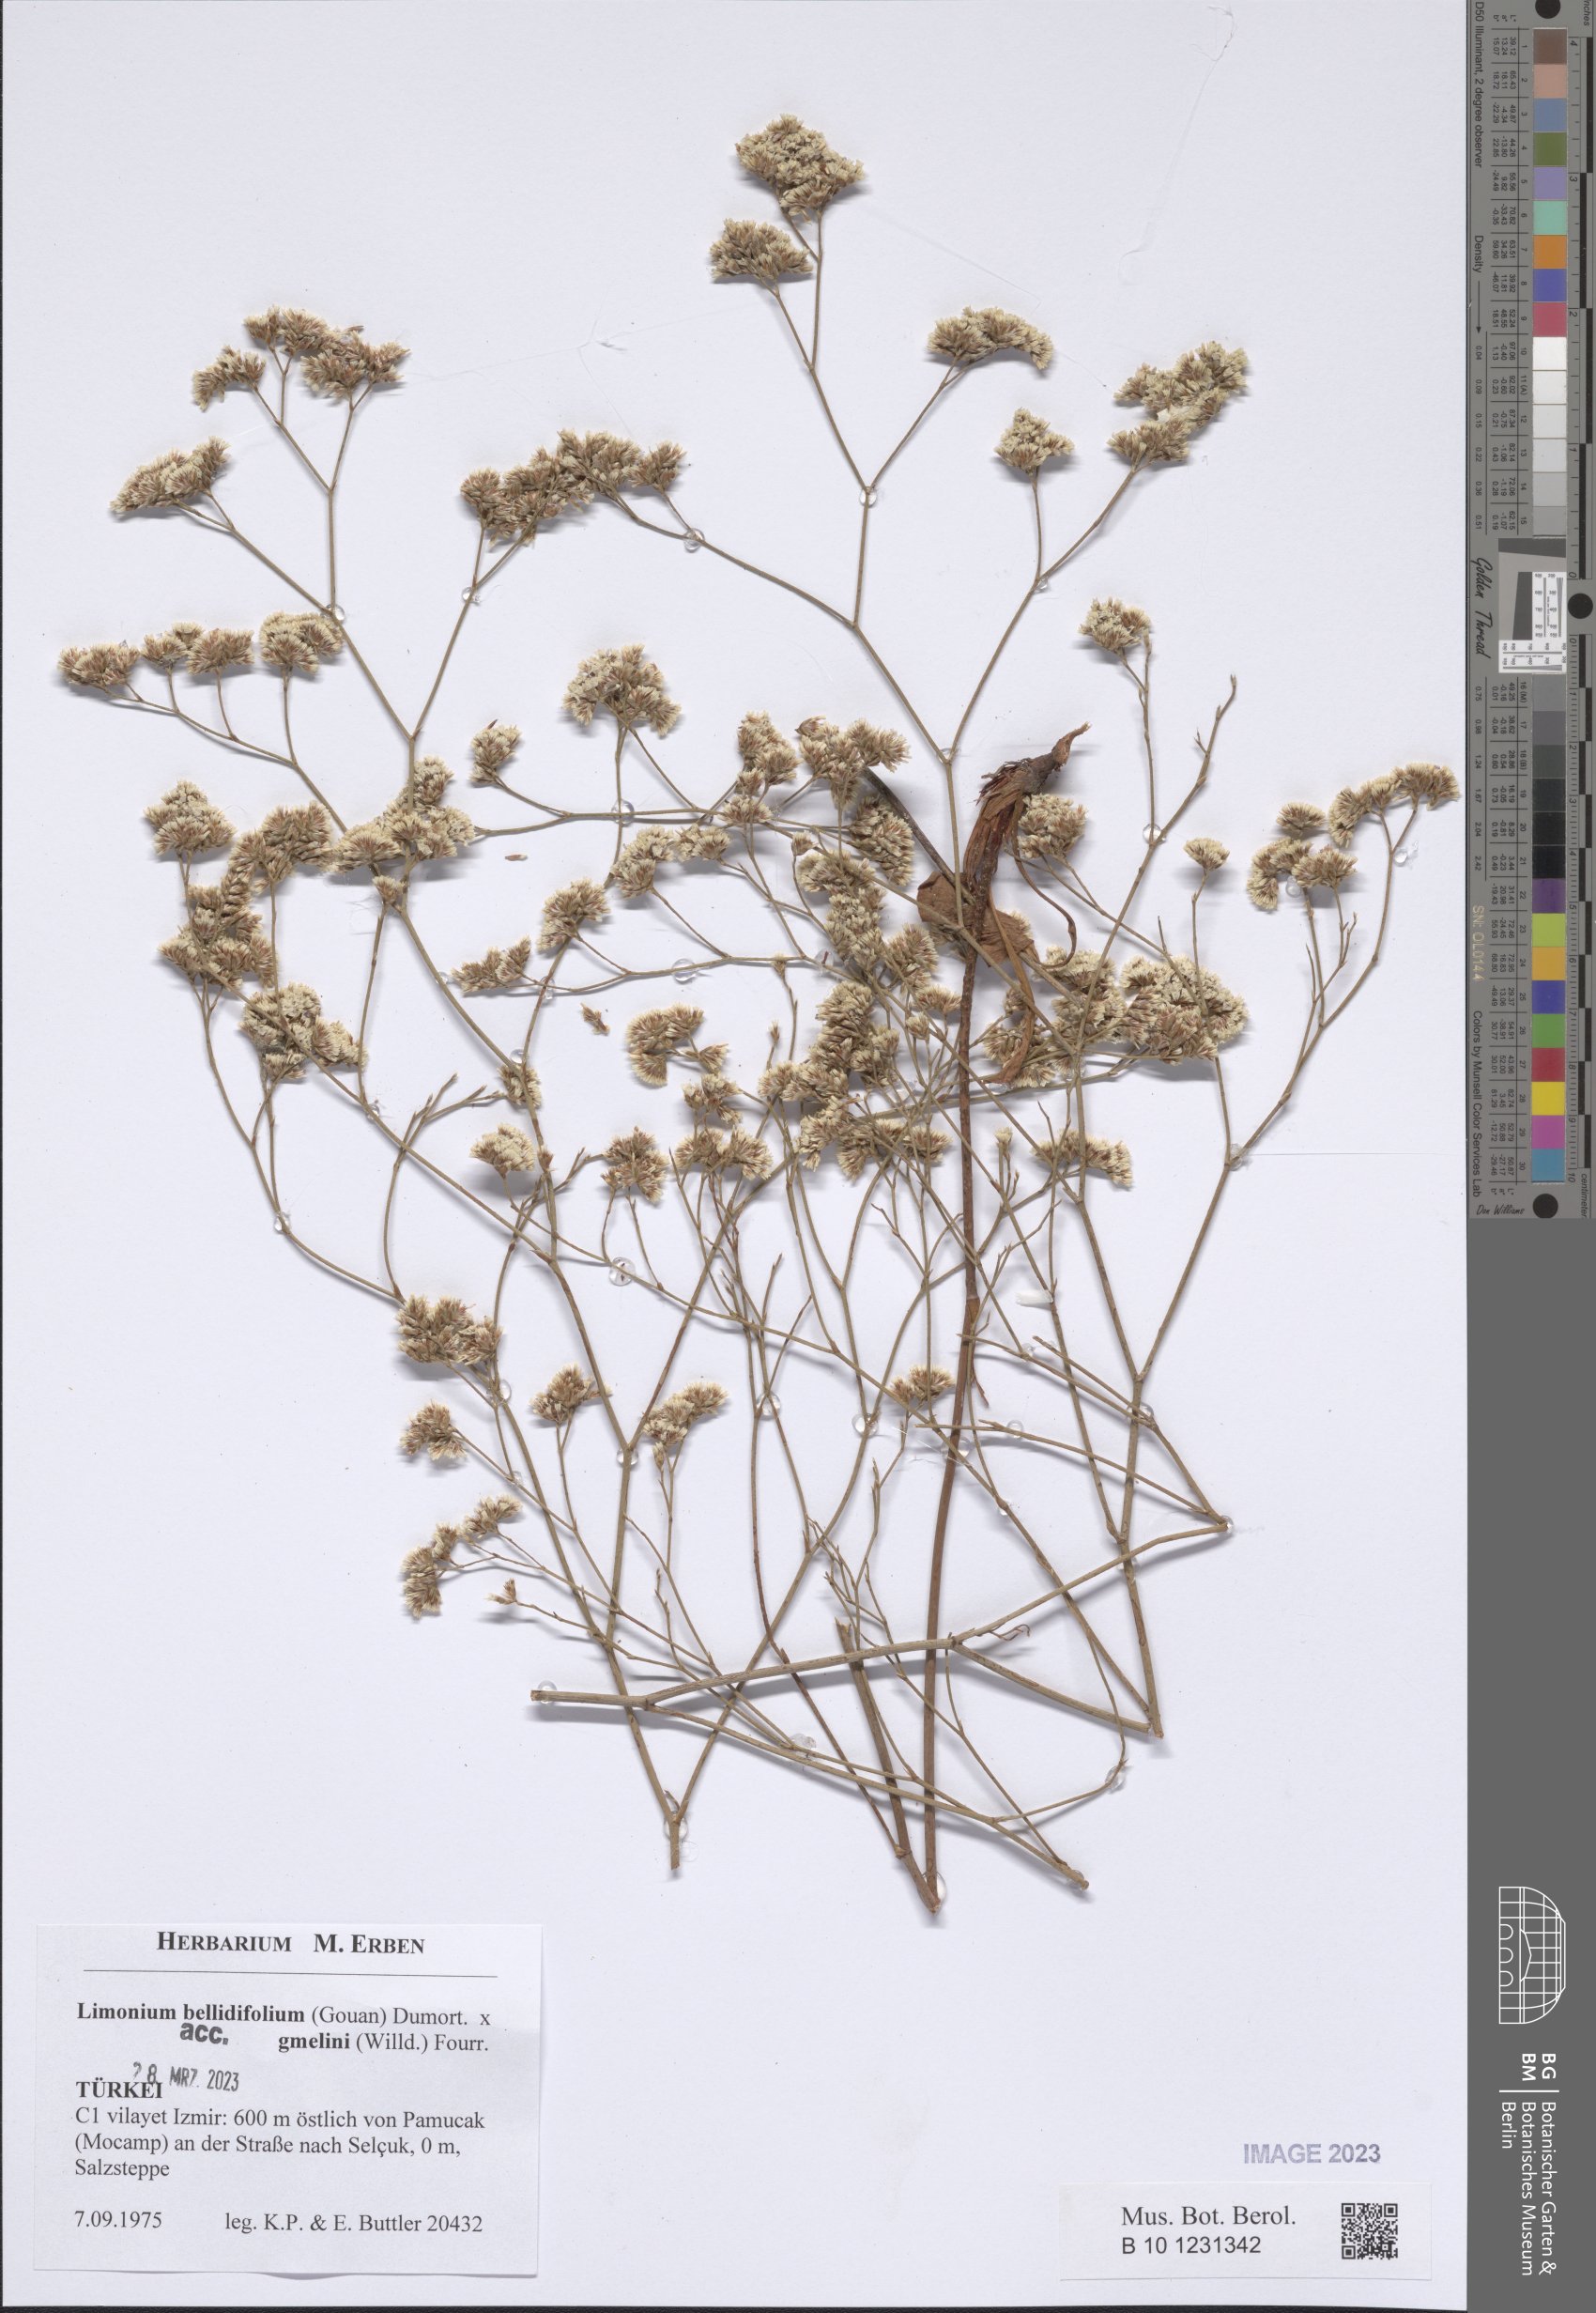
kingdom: Plantae
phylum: Tracheophyta
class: Magnoliopsida
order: Caryophyllales
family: Plumbaginaceae
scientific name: Plumbaginaceae
